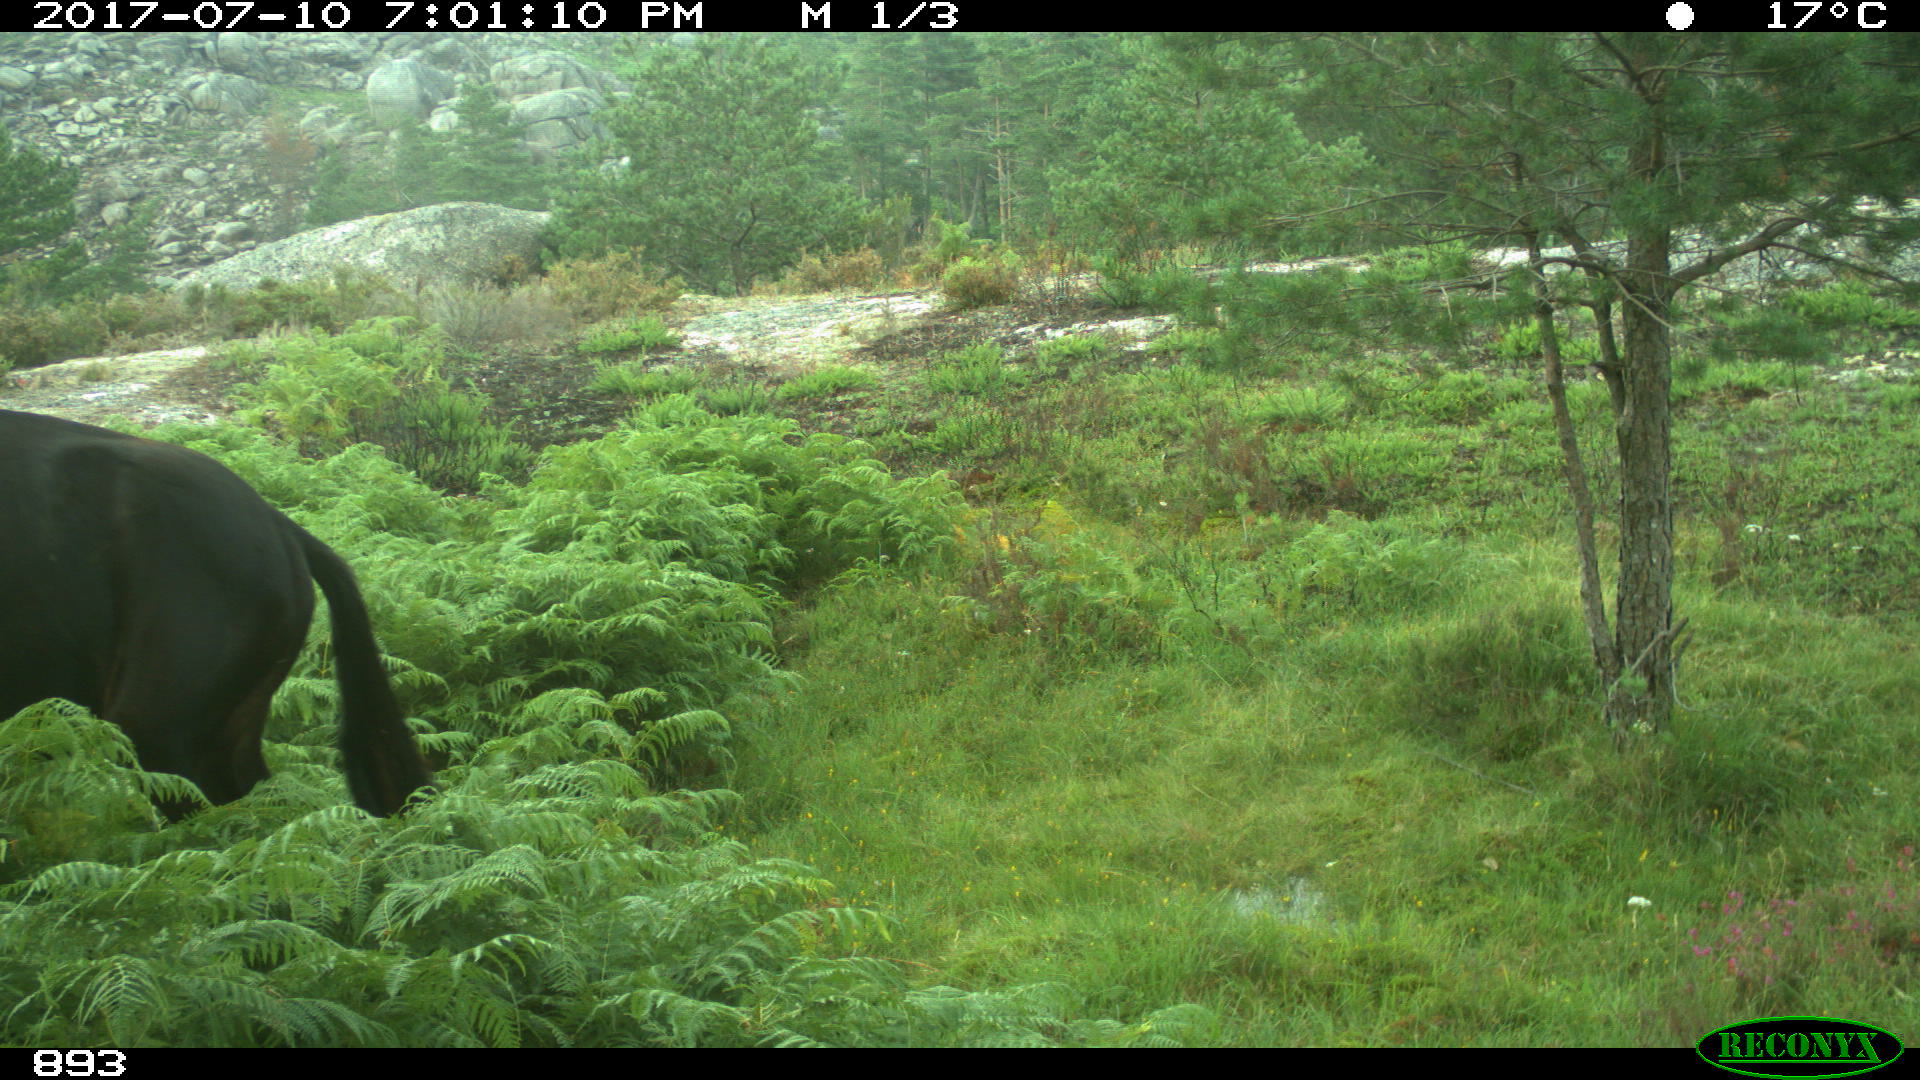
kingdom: Animalia
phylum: Chordata
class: Mammalia
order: Perissodactyla
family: Equidae
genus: Equus
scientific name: Equus caballus
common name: Horse
